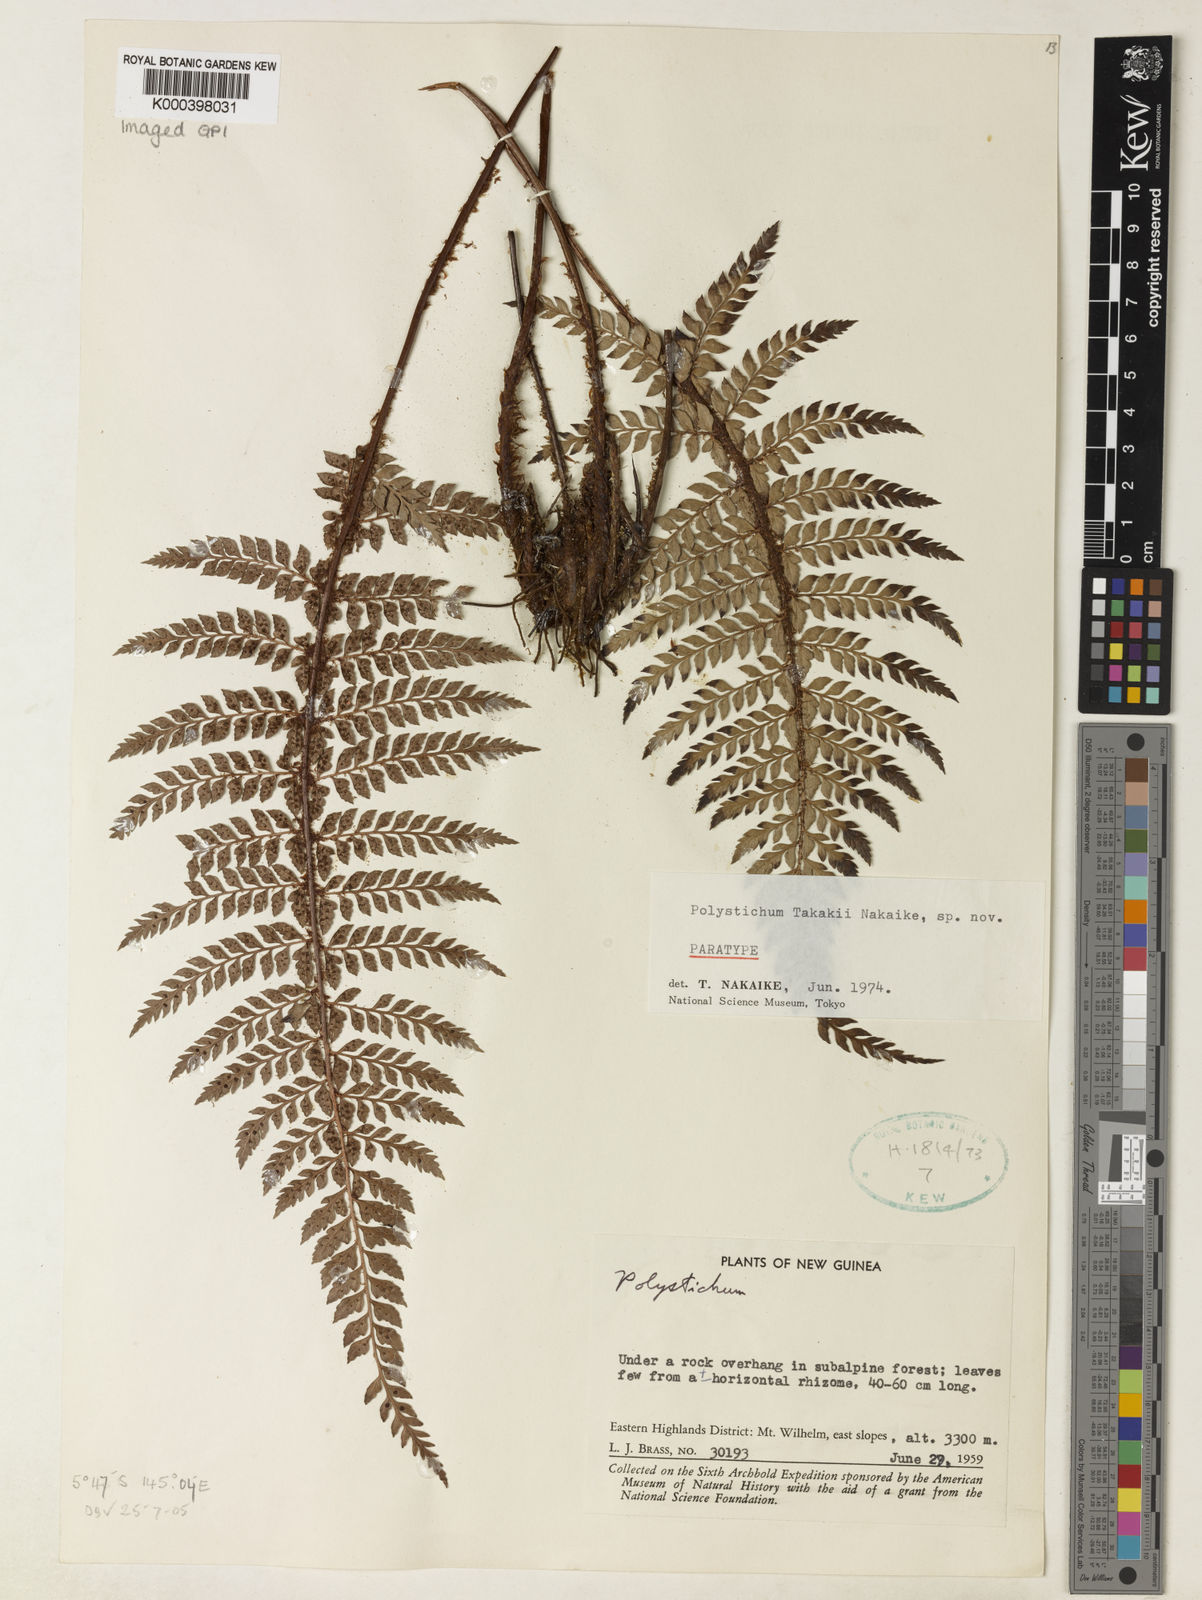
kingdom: Plantae
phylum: Tracheophyta
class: Polypodiopsida
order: Polypodiales
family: Dryopteridaceae
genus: Polystichum
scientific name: Polystichum takakii
